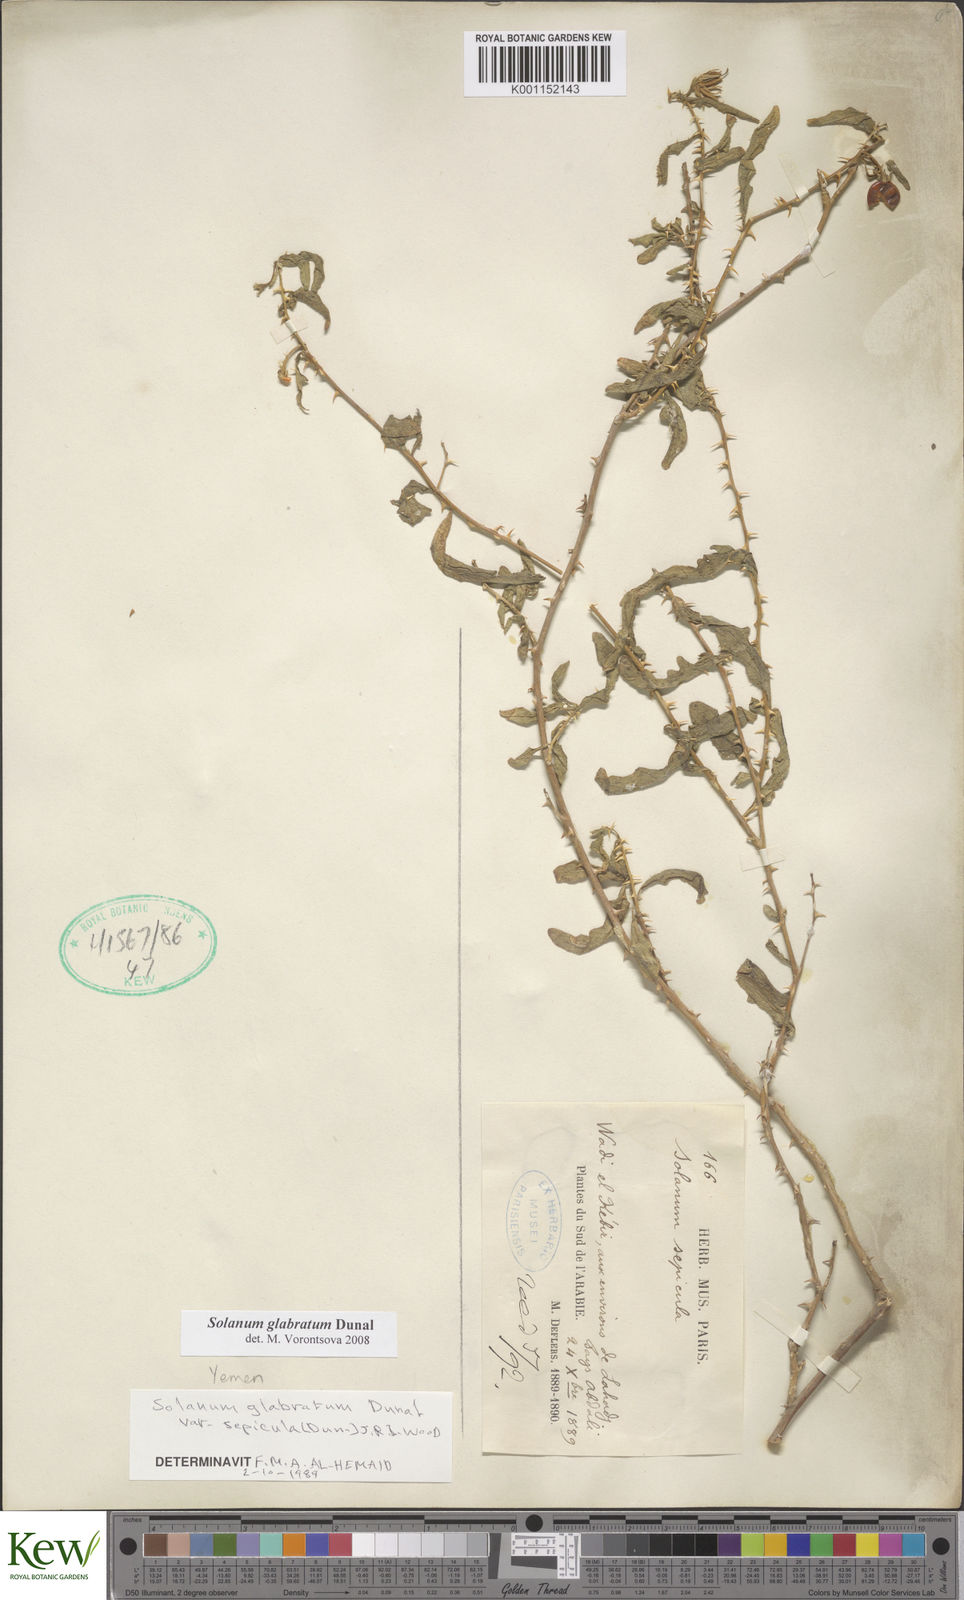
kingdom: Plantae
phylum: Tracheophyta
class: Magnoliopsida
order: Solanales
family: Solanaceae
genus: Solanum
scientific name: Solanum glabratum
